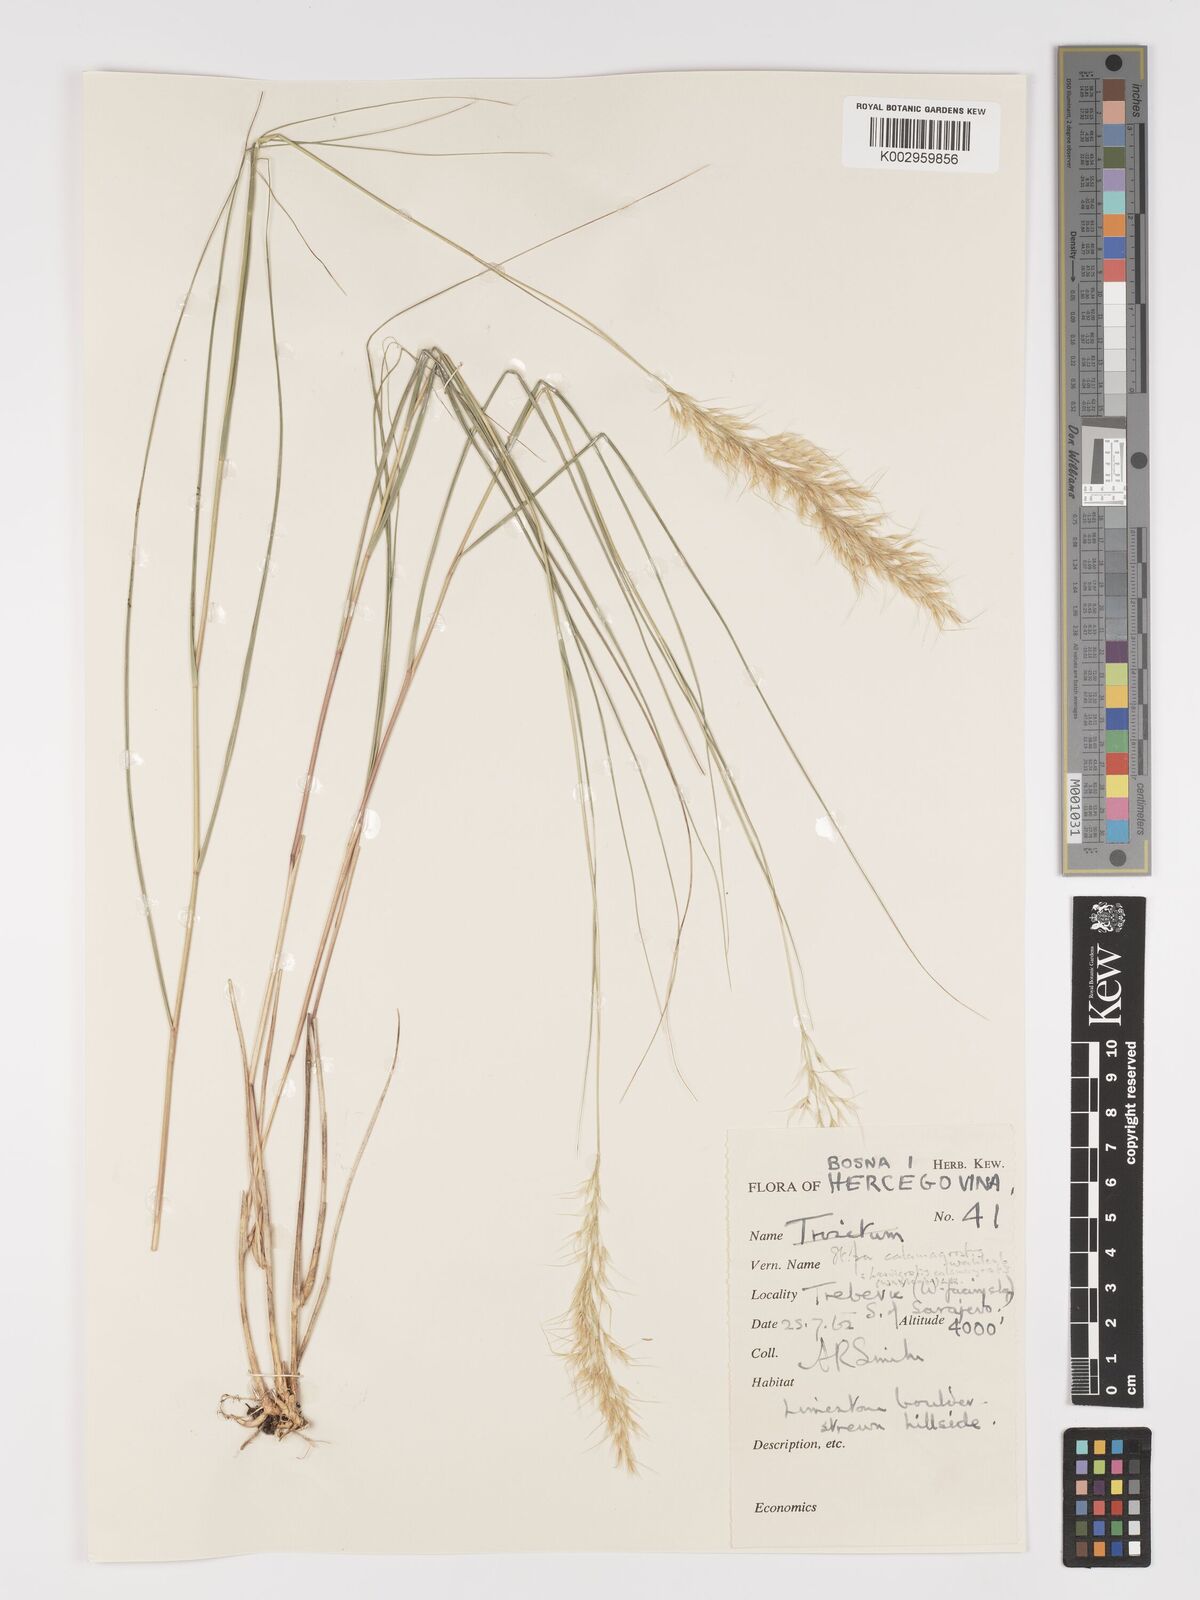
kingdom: Plantae
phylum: Tracheophyta
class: Liliopsida
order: Poales
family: Poaceae
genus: Achnatherum
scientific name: Achnatherum calamagrostis
